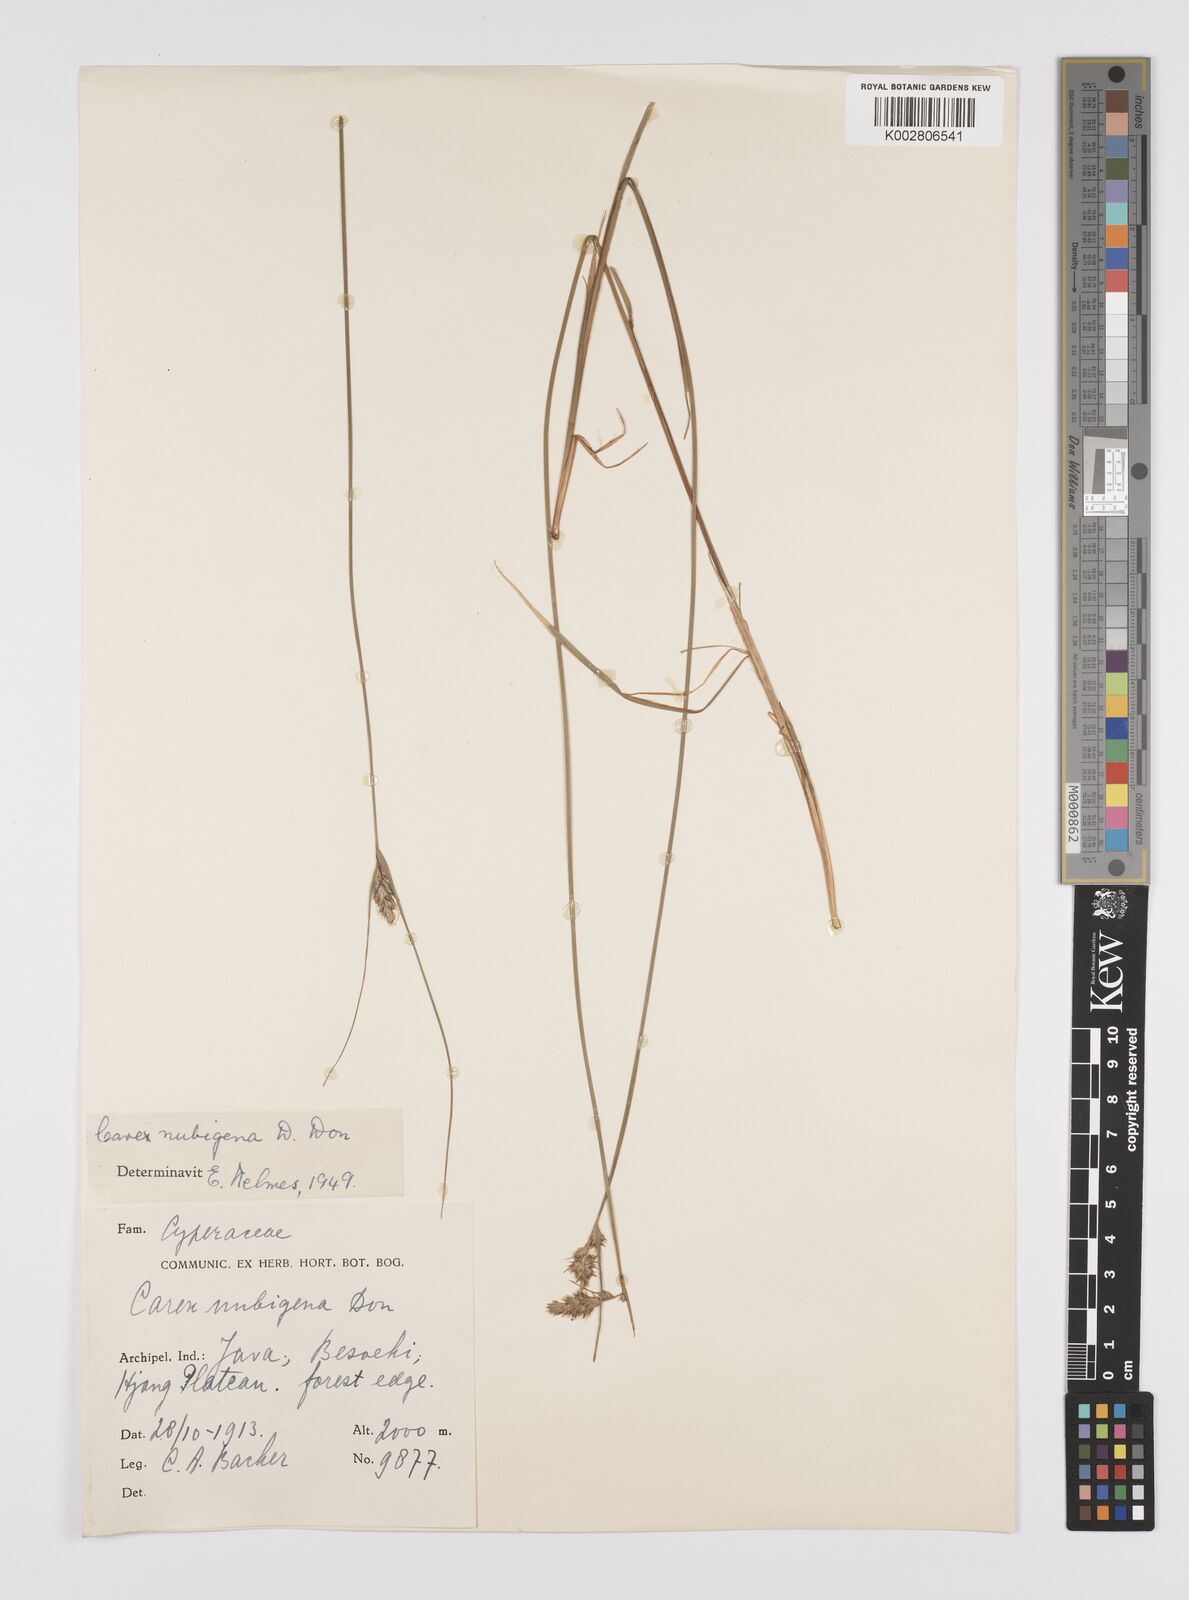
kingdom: Plantae
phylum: Tracheophyta
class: Liliopsida
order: Poales
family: Cyperaceae
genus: Carex
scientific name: Carex
